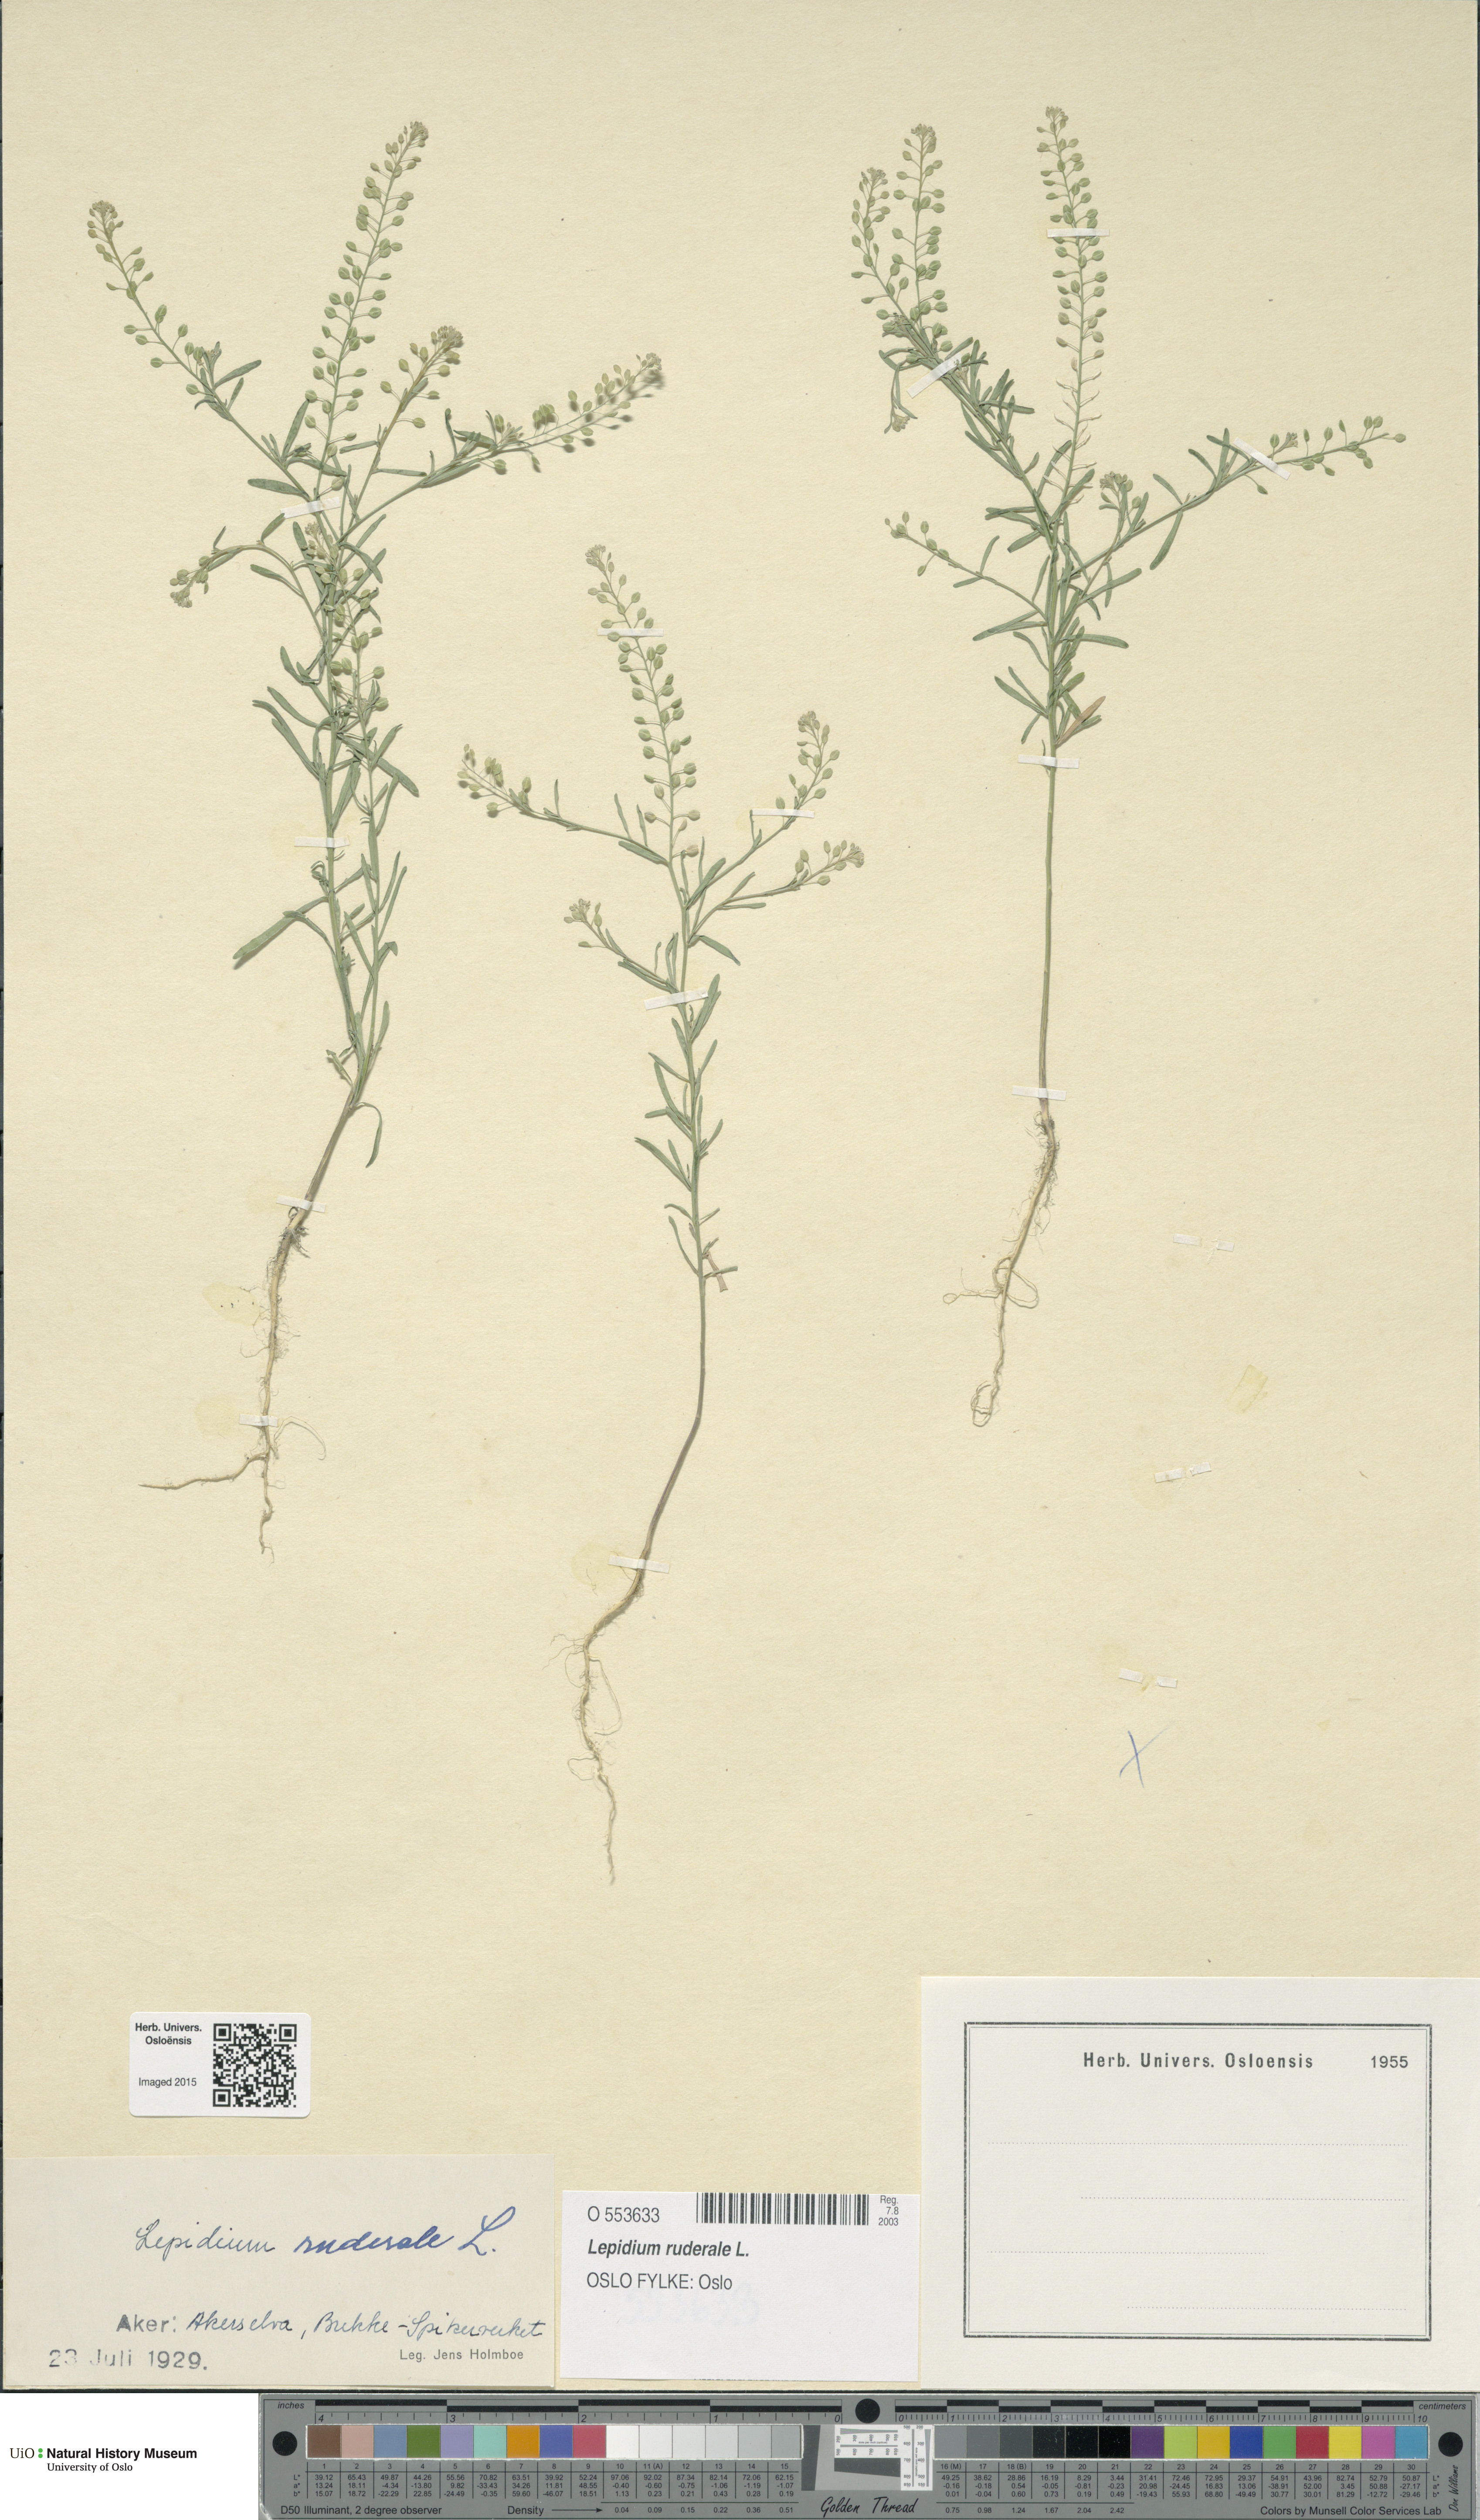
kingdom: Plantae
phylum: Tracheophyta
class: Magnoliopsida
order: Brassicales
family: Brassicaceae
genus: Lepidium
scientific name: Lepidium ruderale
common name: Narrow-leaved pepperwort
